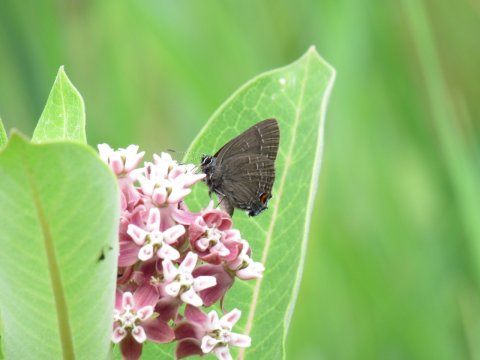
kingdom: Animalia
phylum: Arthropoda
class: Insecta
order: Lepidoptera
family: Lycaenidae
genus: Satyrium
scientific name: Satyrium calanus
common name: Banded Hairstreak
